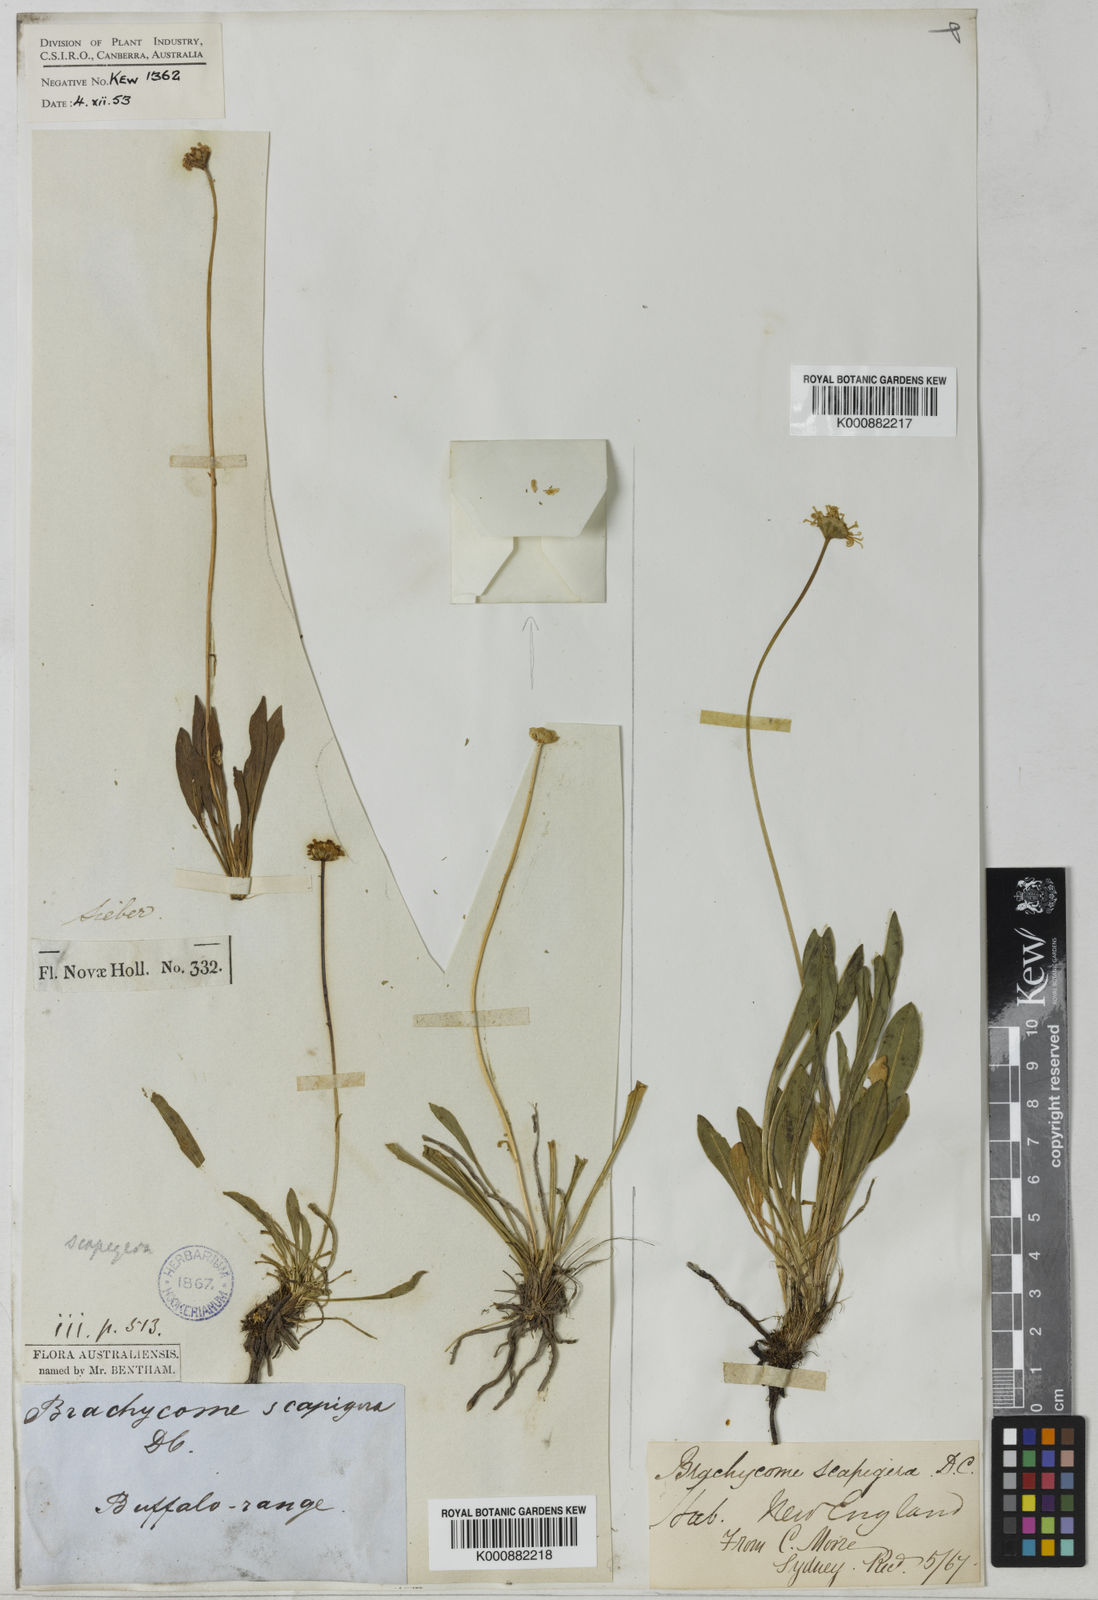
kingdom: Plantae
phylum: Tracheophyta
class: Magnoliopsida
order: Asterales
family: Asteraceae
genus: Brachyscome
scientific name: Brachyscome scapigera
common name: Tufted daisy
